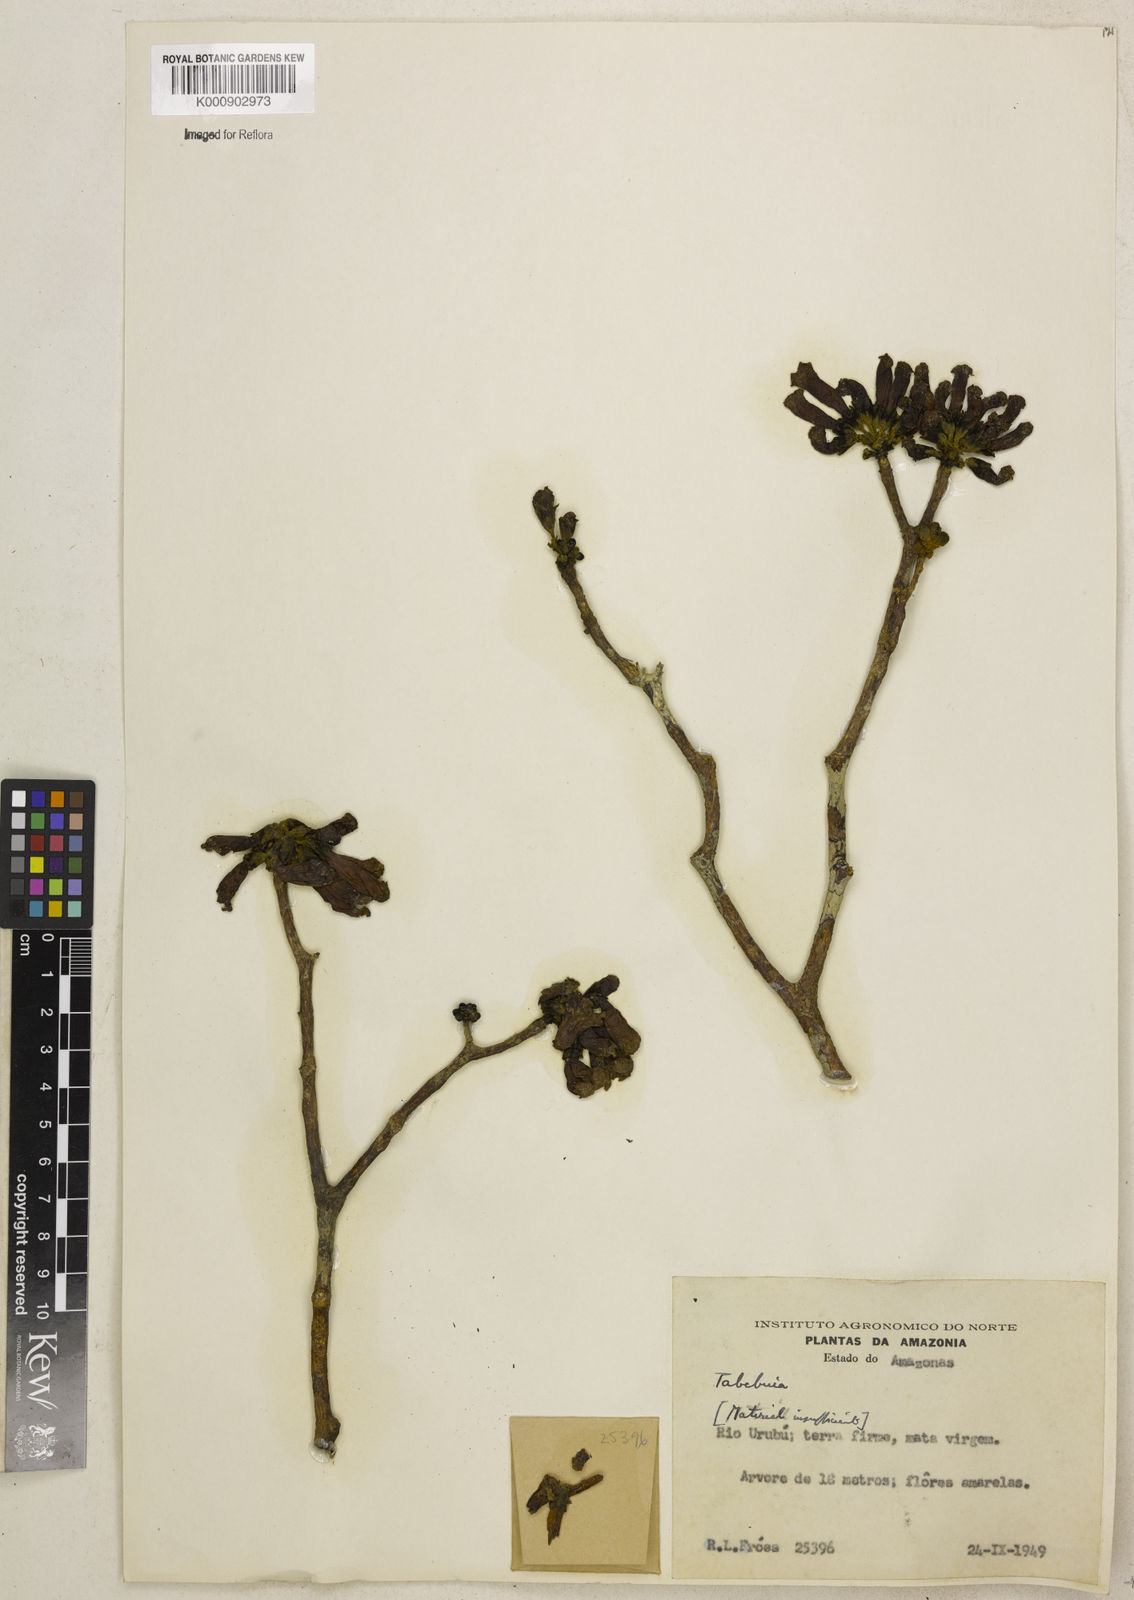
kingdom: Plantae
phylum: Tracheophyta
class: Magnoliopsida
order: Lamiales
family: Bignoniaceae
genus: Tabebuia
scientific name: Tabebuia
